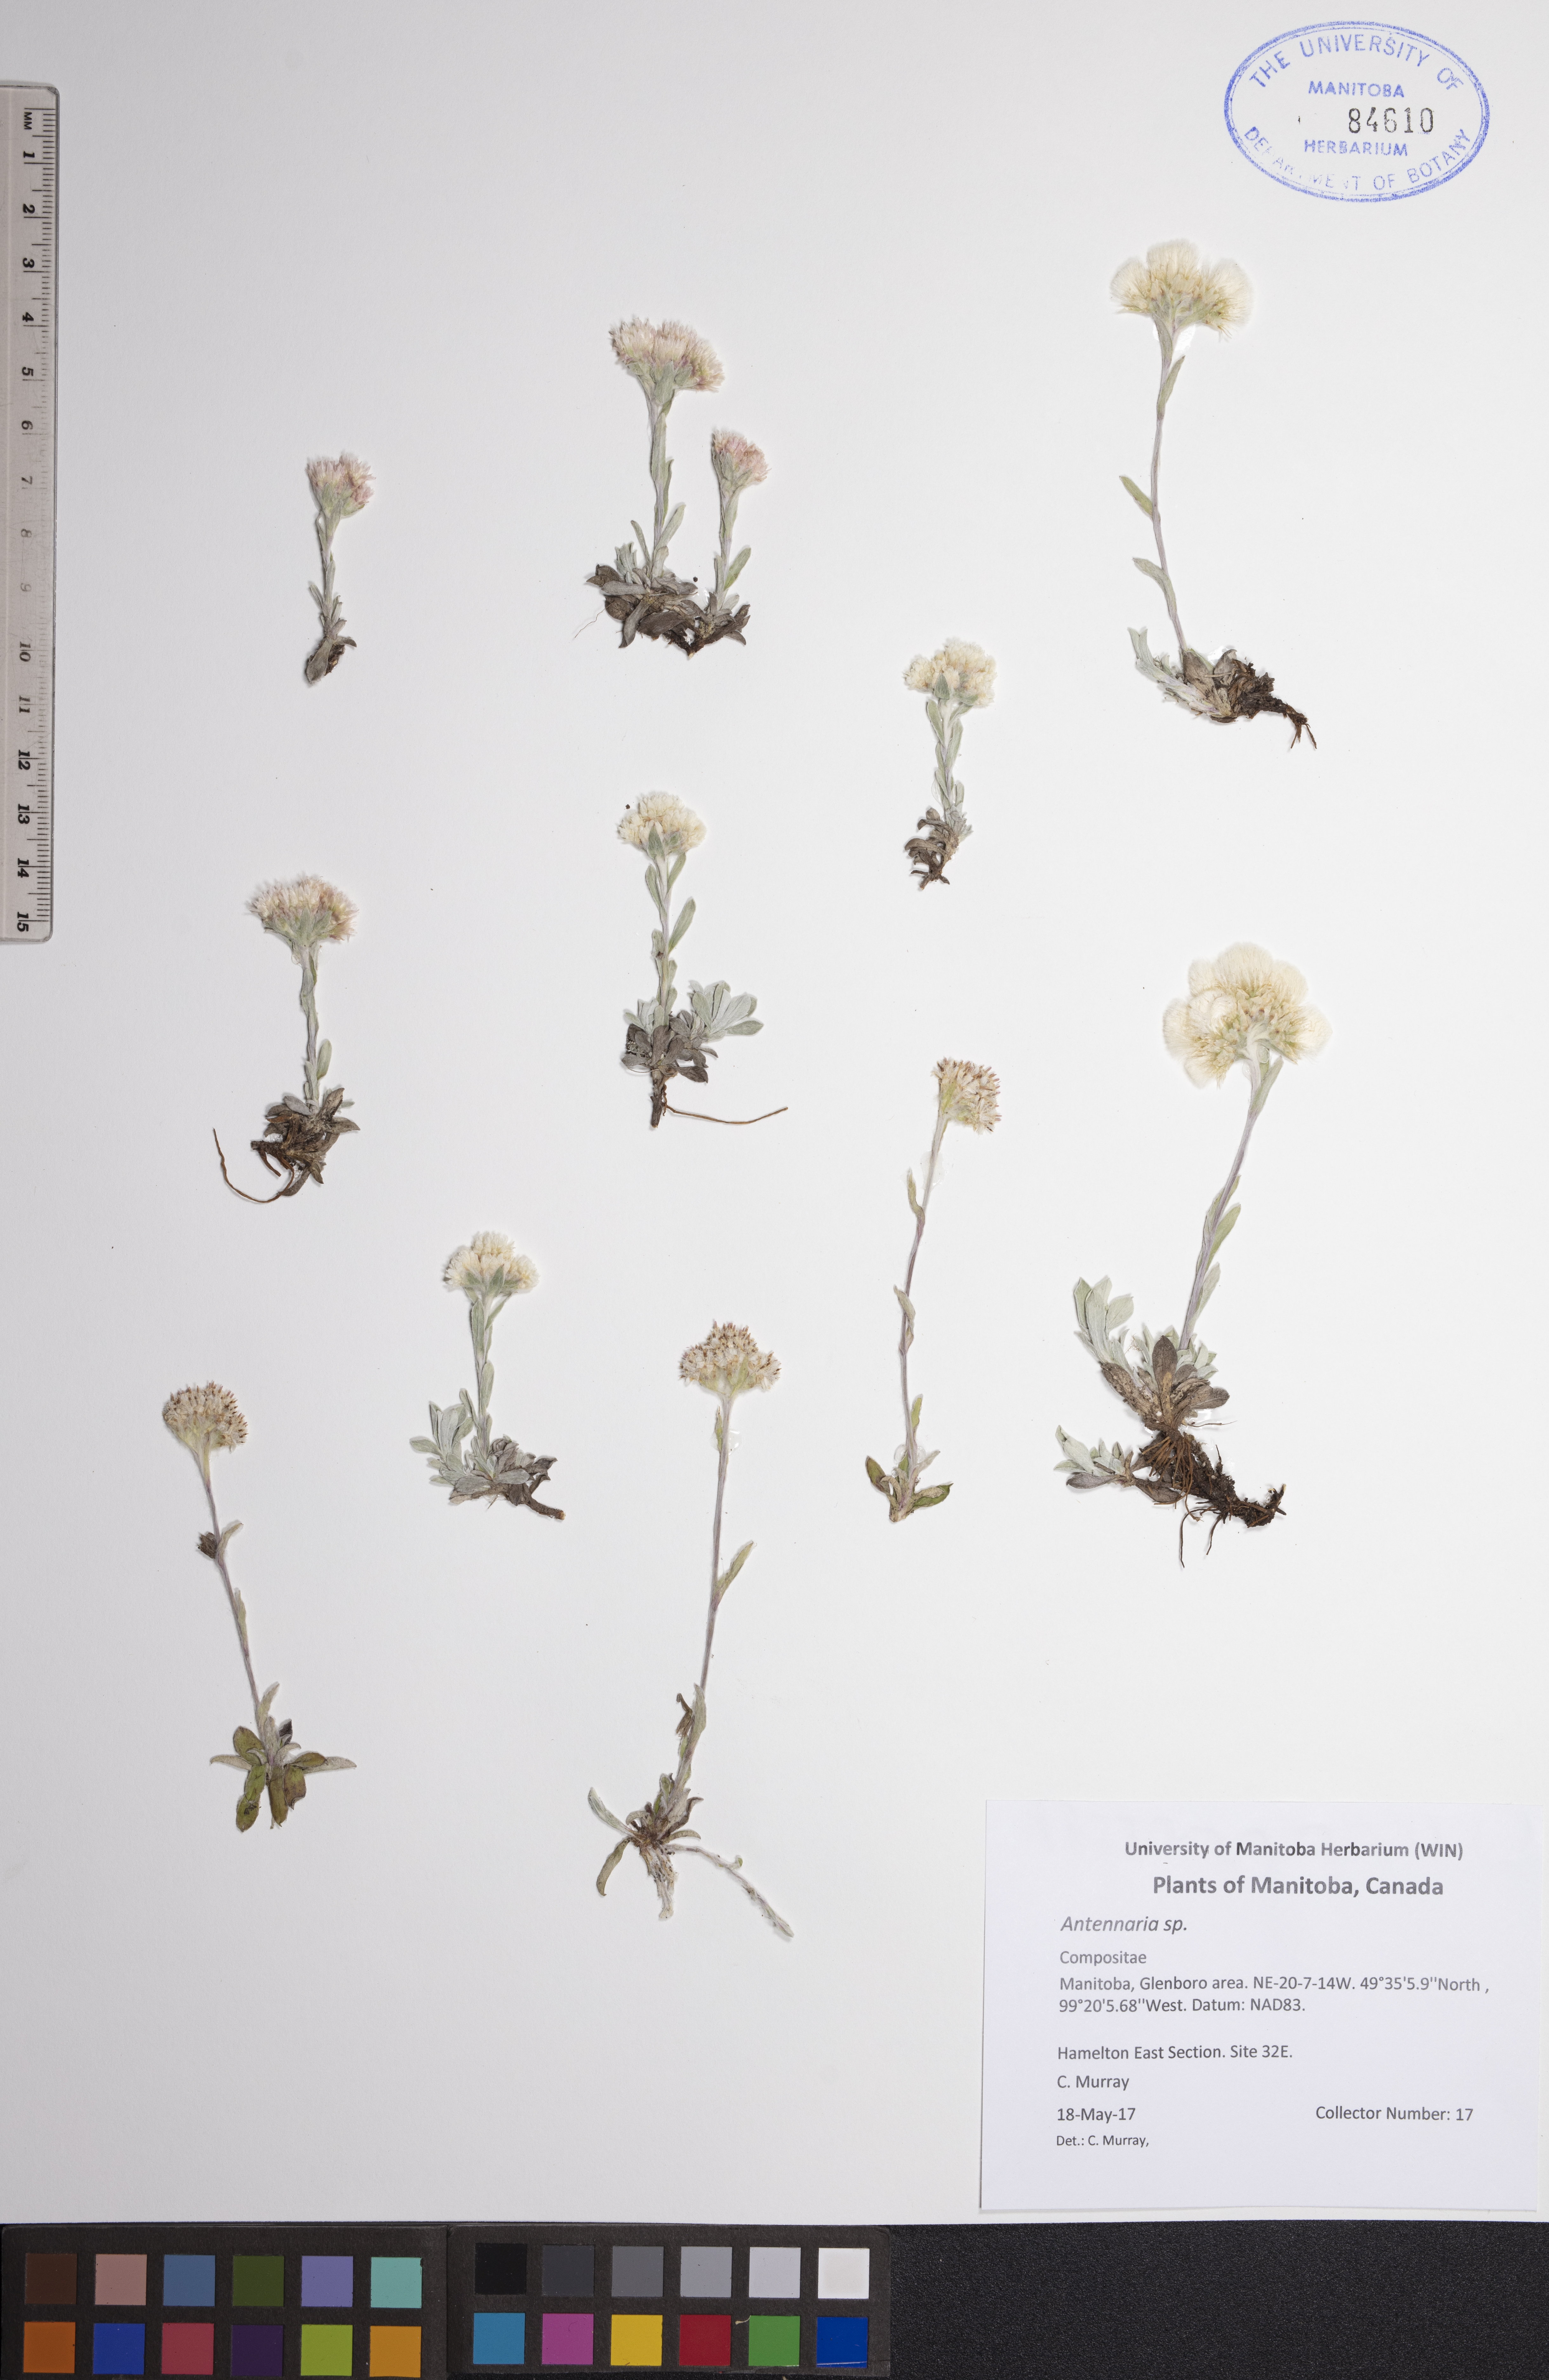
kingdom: Plantae
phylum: Tracheophyta
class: Magnoliopsida
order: Asterales
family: Asteraceae
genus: Antennaria
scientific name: Antennaria
